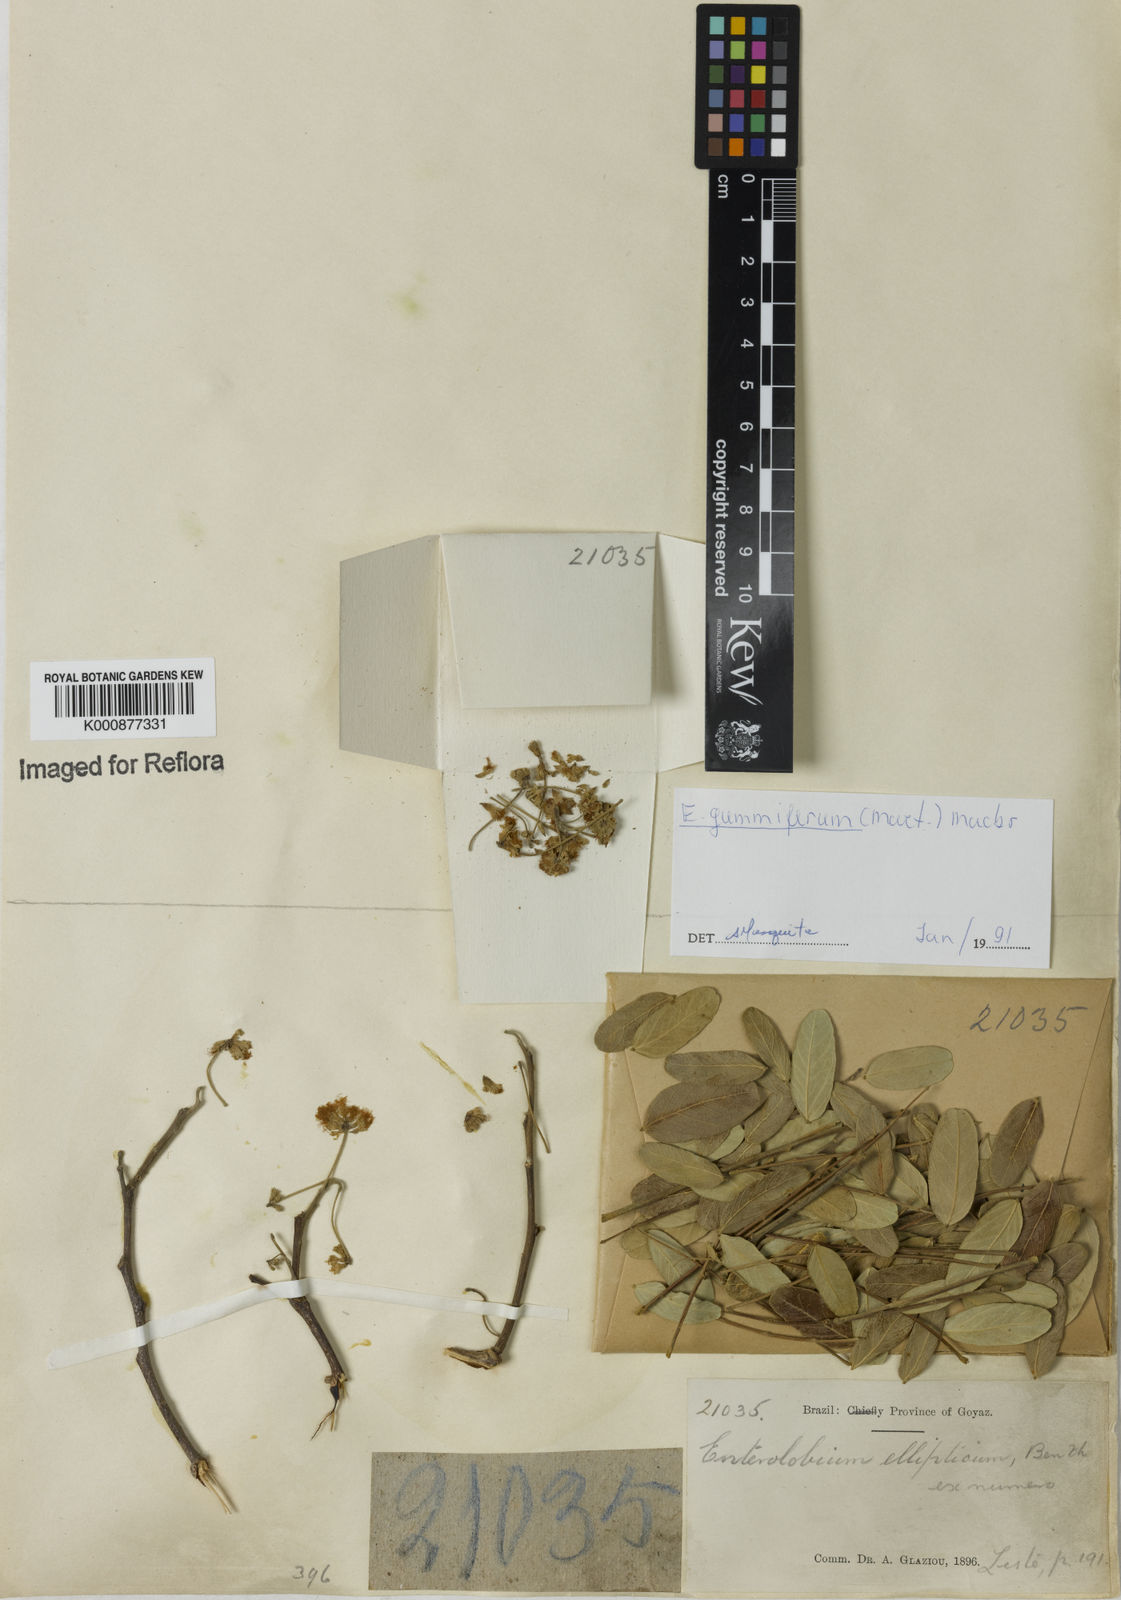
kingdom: Plantae
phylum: Tracheophyta
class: Magnoliopsida
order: Fabales
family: Fabaceae
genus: Enterolobium
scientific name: Enterolobium gummiferum
